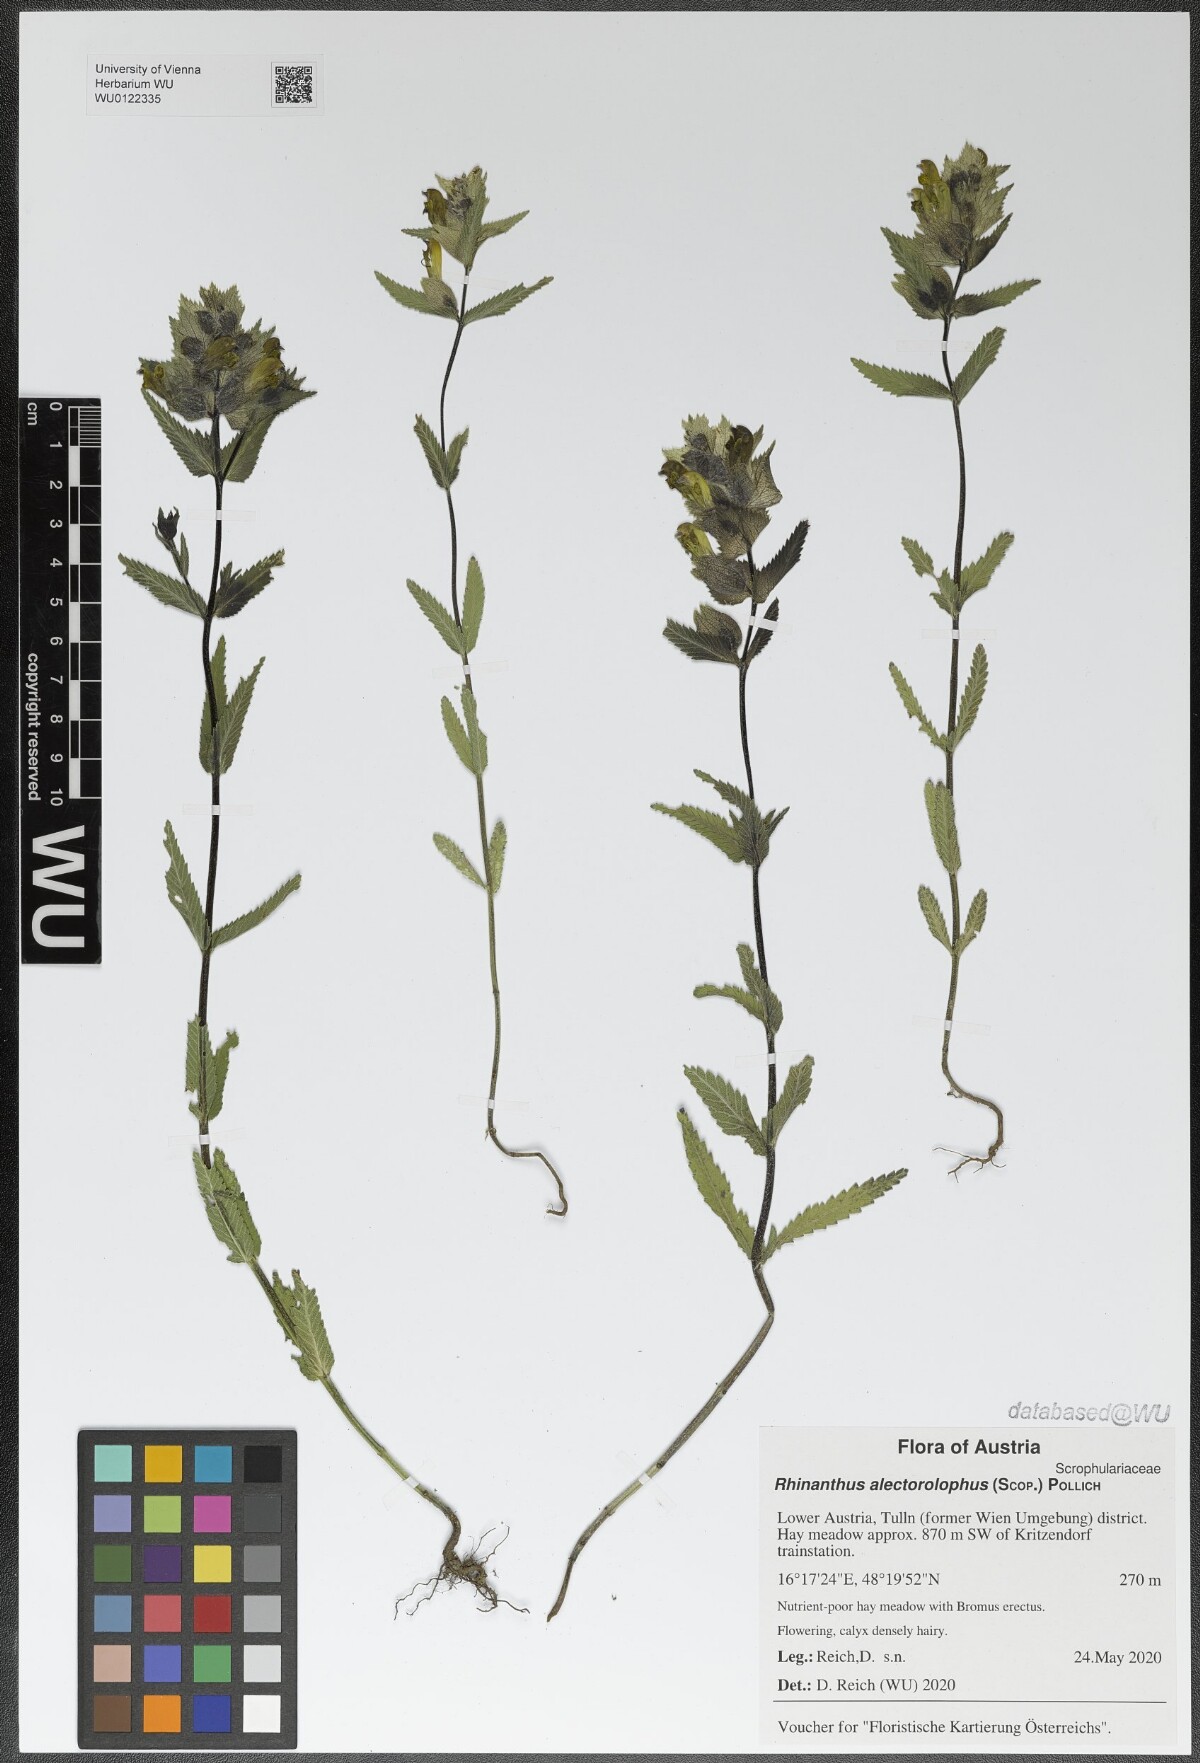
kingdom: Plantae
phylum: Tracheophyta
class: Magnoliopsida
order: Lamiales
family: Orobanchaceae
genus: Rhinanthus
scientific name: Rhinanthus alectorolophus
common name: Greater yellow-rattle
